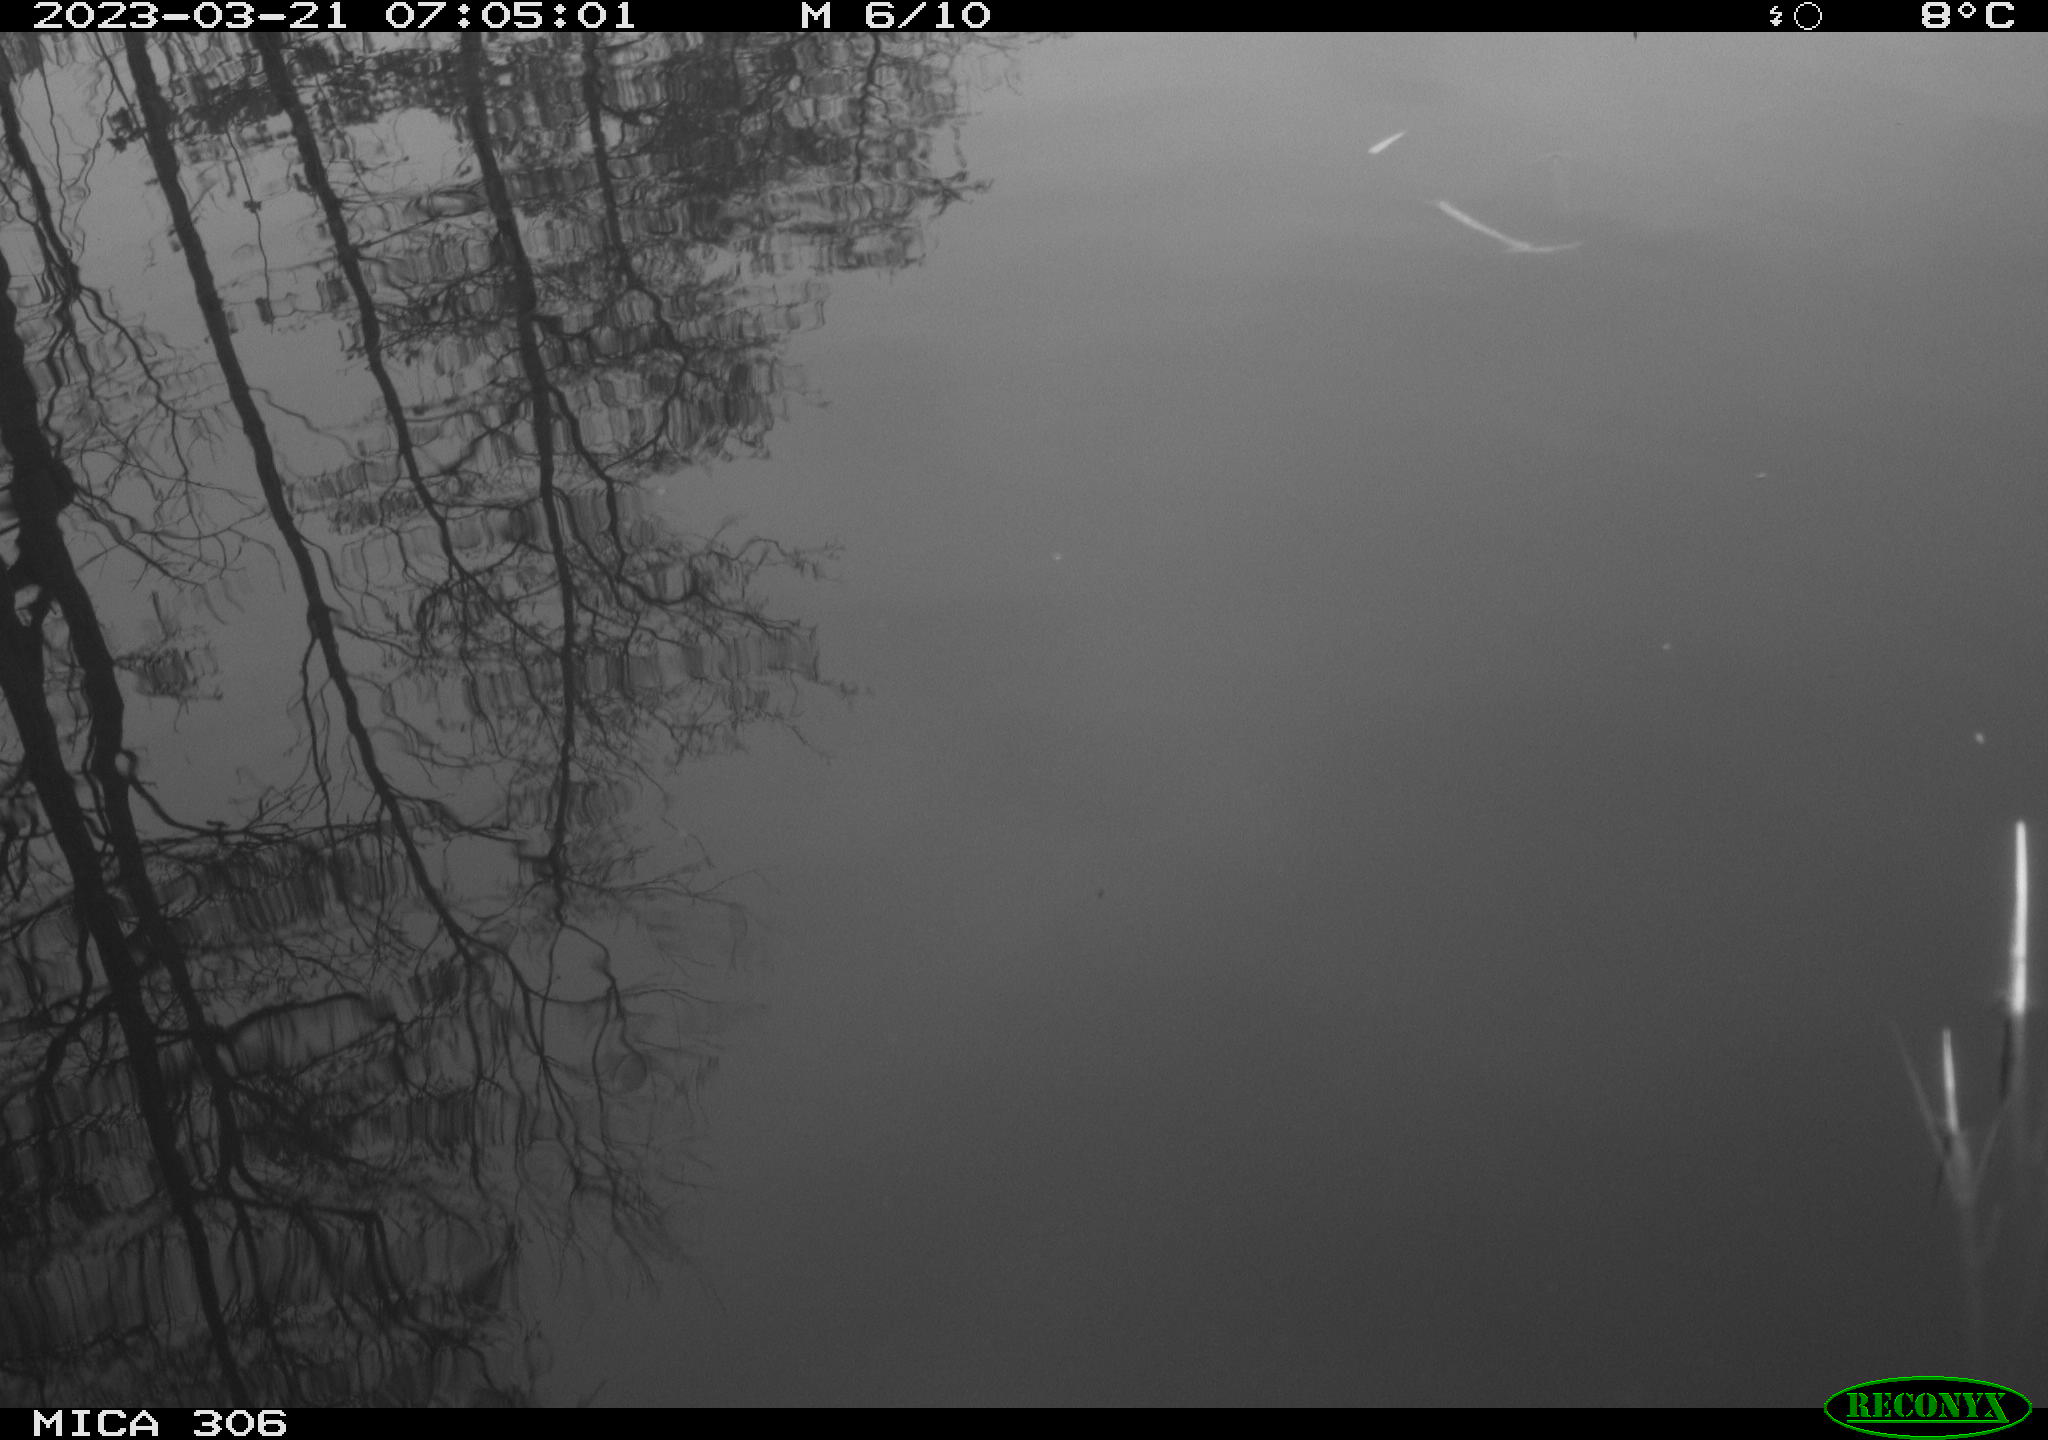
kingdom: Animalia
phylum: Chordata
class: Aves
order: Anseriformes
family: Anatidae
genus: Anas
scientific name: Anas
